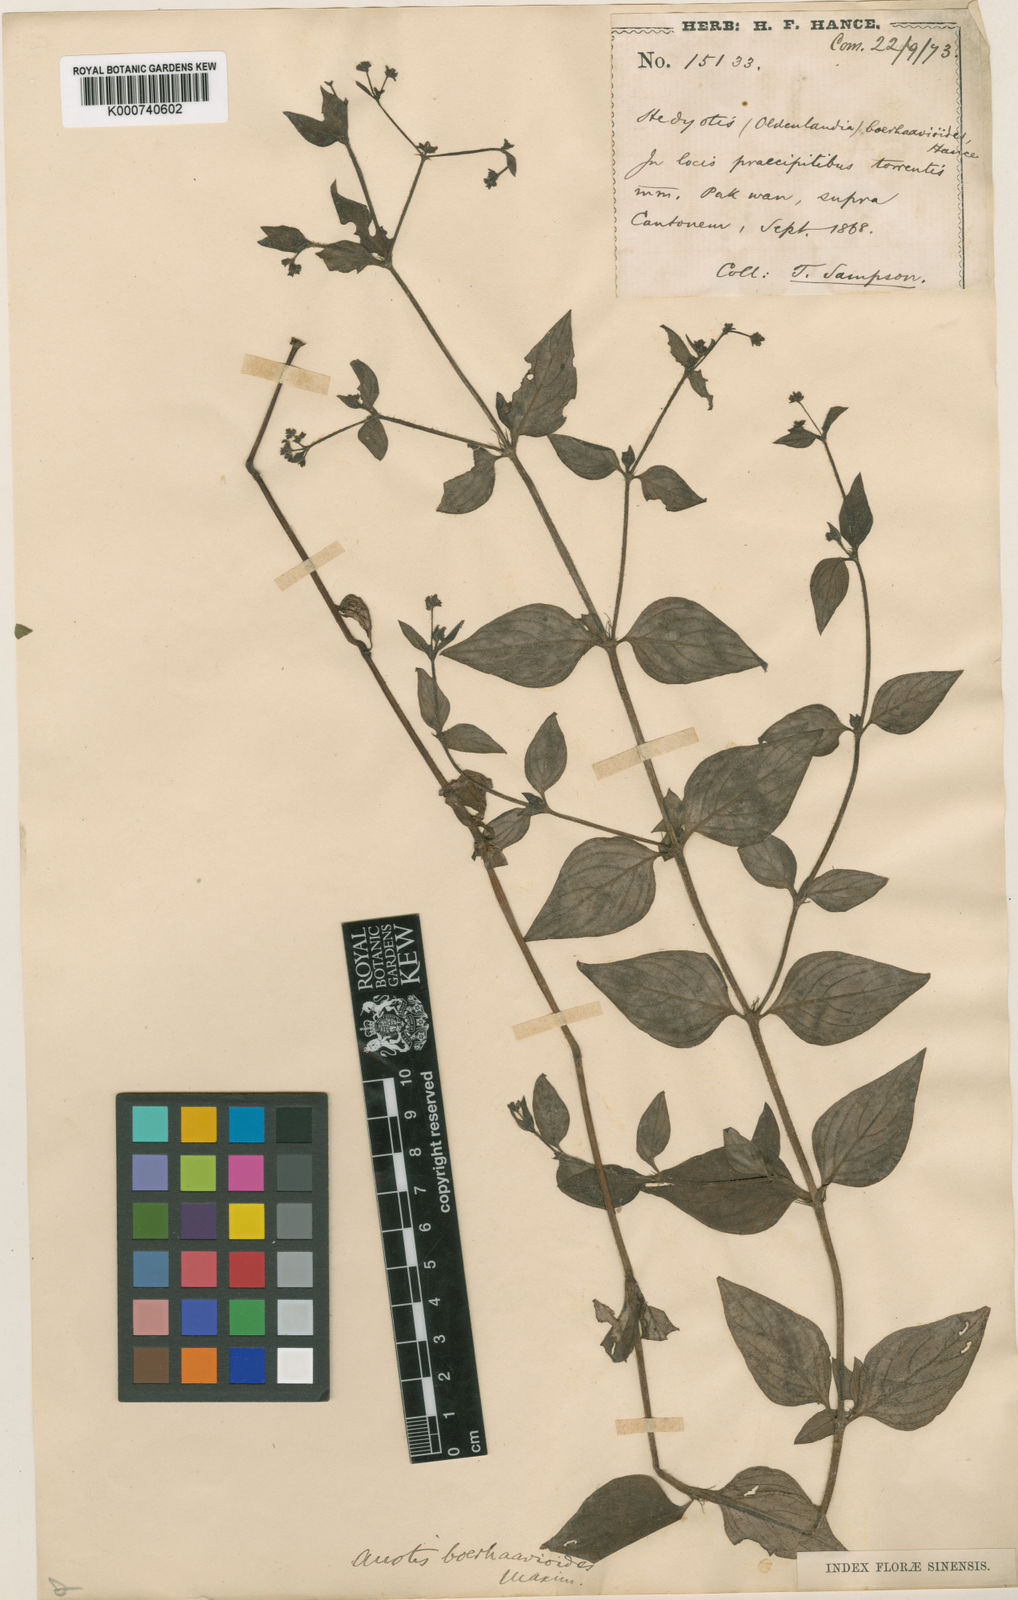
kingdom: Plantae
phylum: Tracheophyta
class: Magnoliopsida
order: Gentianales
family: Rubiaceae
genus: Neanotis
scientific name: Neanotis boerhavioides
